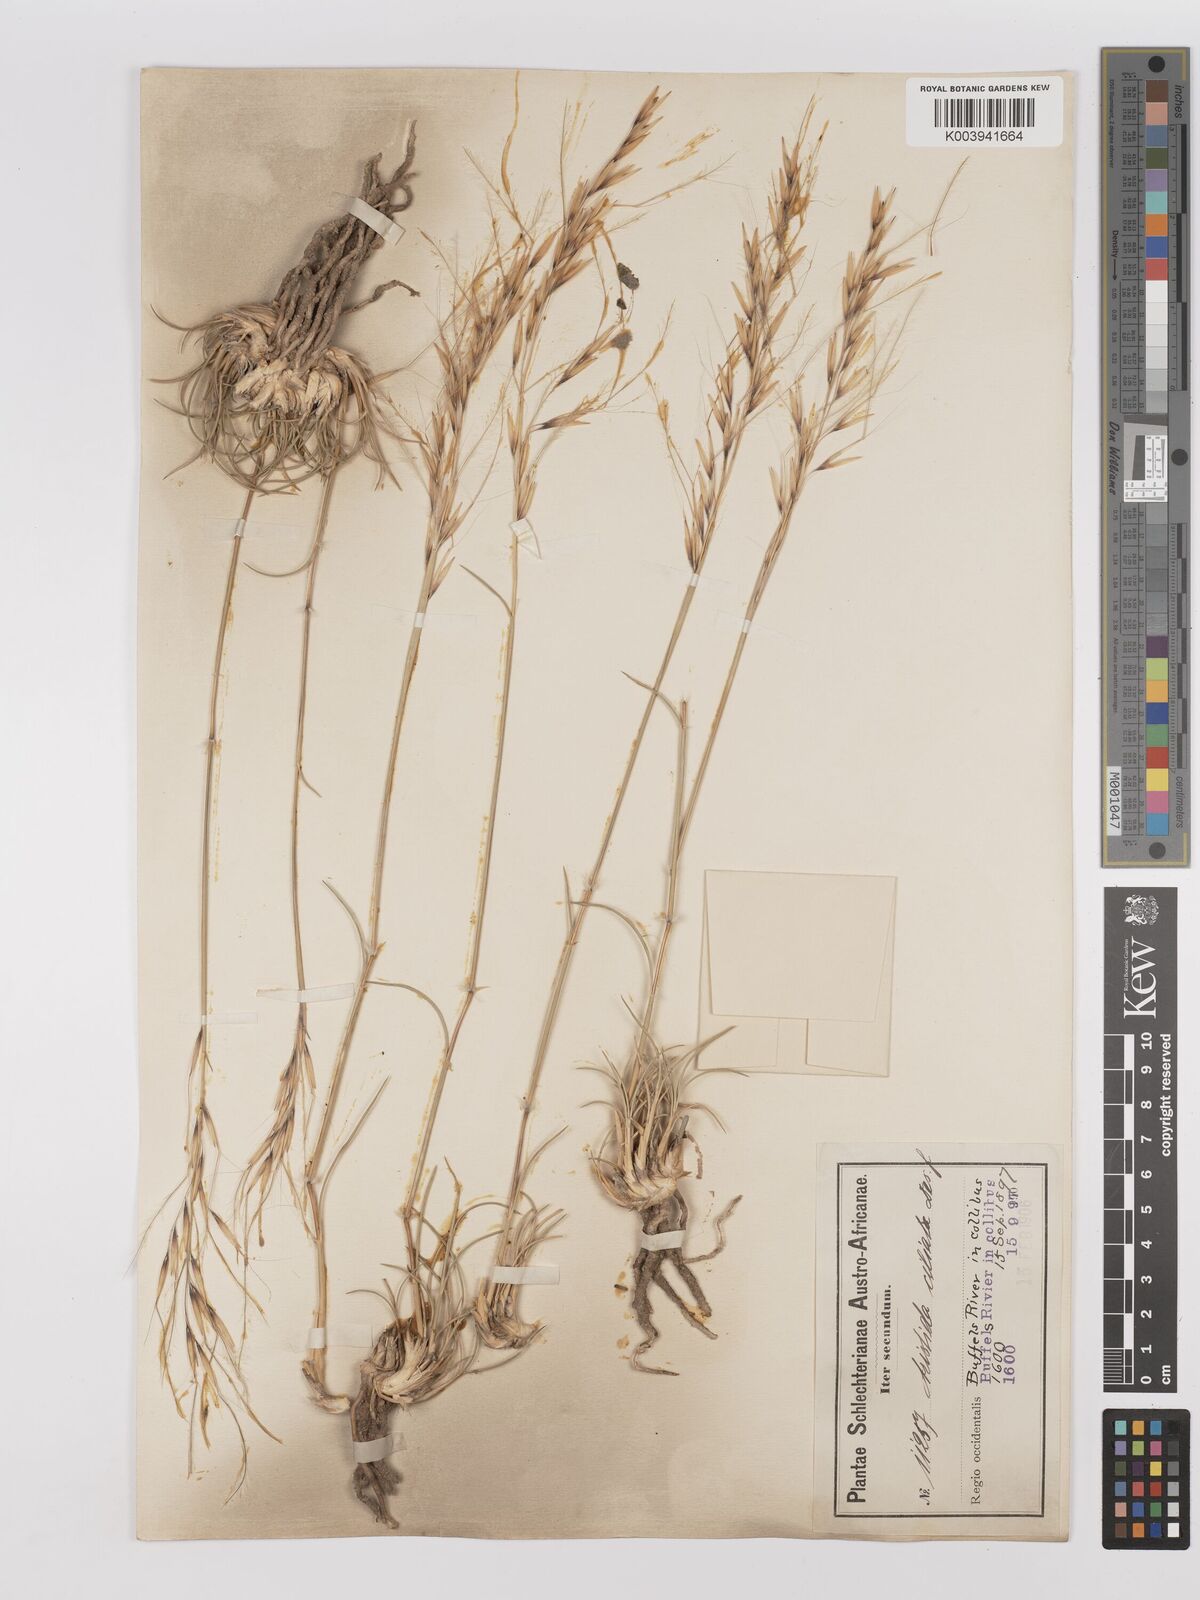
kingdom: Plantae
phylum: Tracheophyta
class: Liliopsida
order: Poales
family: Poaceae
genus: Stipagrostis
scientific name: Stipagrostis ciliata
